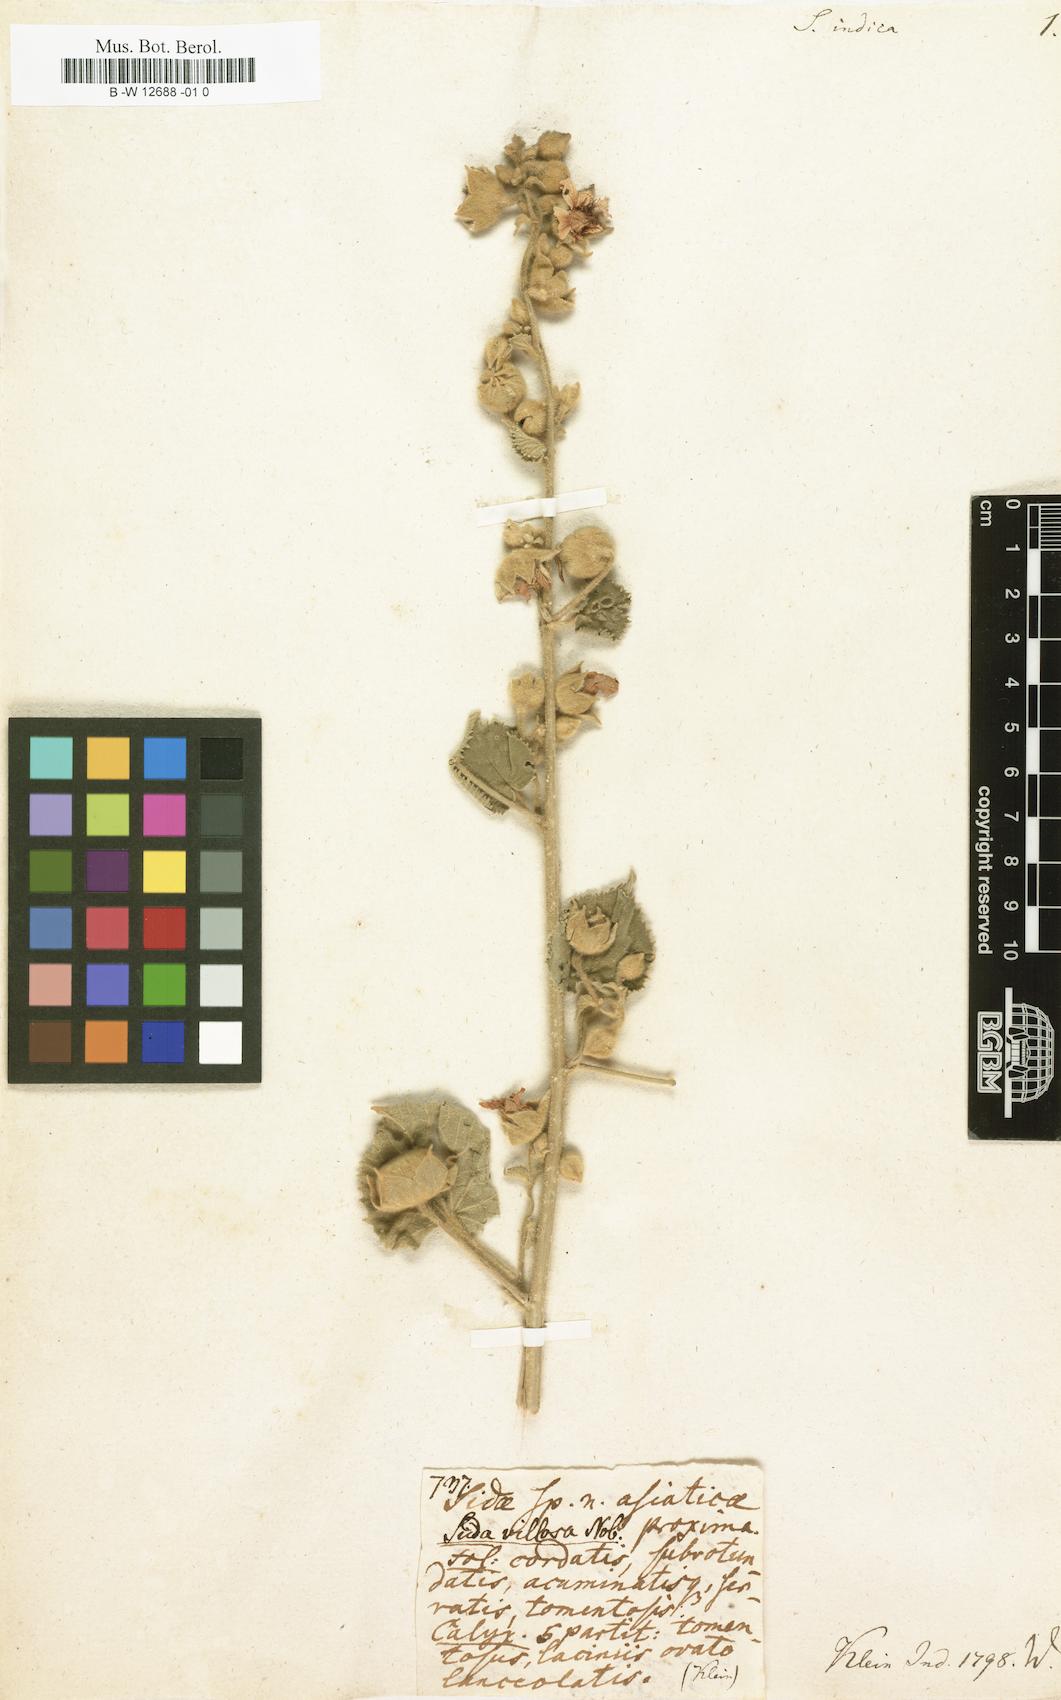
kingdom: Plantae
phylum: Tracheophyta
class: Magnoliopsida
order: Malvales
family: Malvaceae
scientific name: Malvaceae
